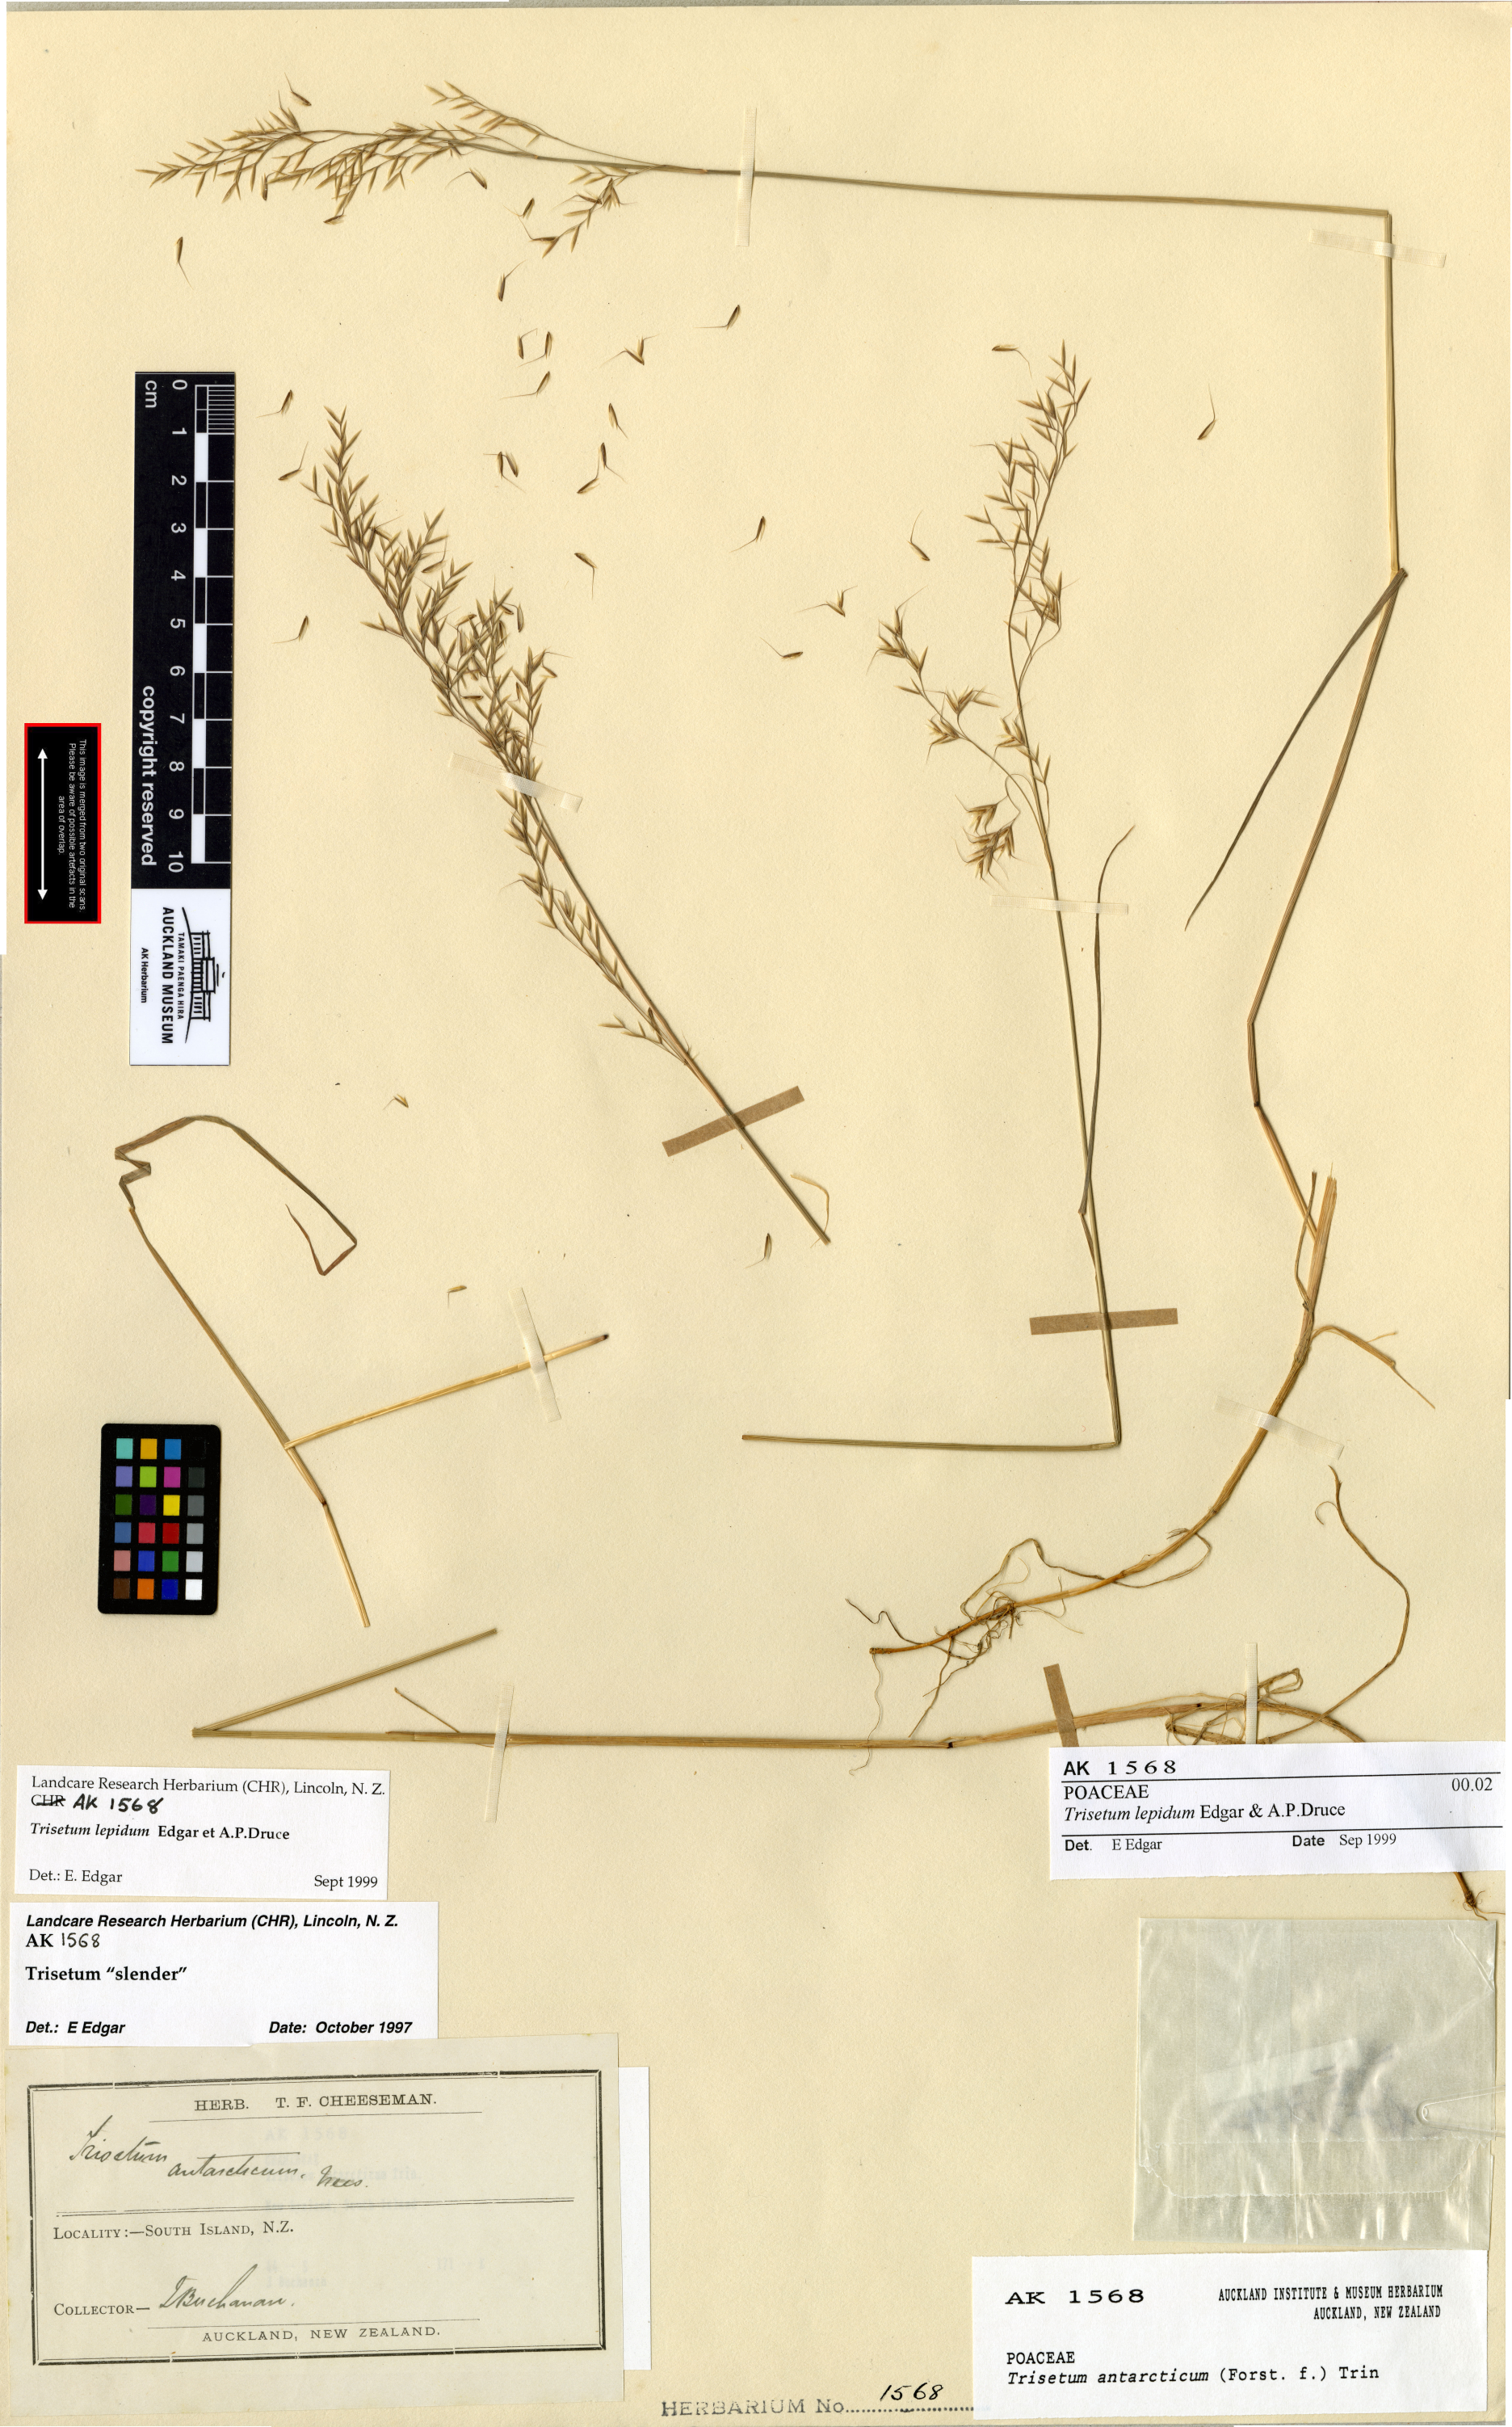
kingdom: Plantae
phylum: Tracheophyta
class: Liliopsida
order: Poales
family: Poaceae
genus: Koeleria
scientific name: Koeleria lepida
